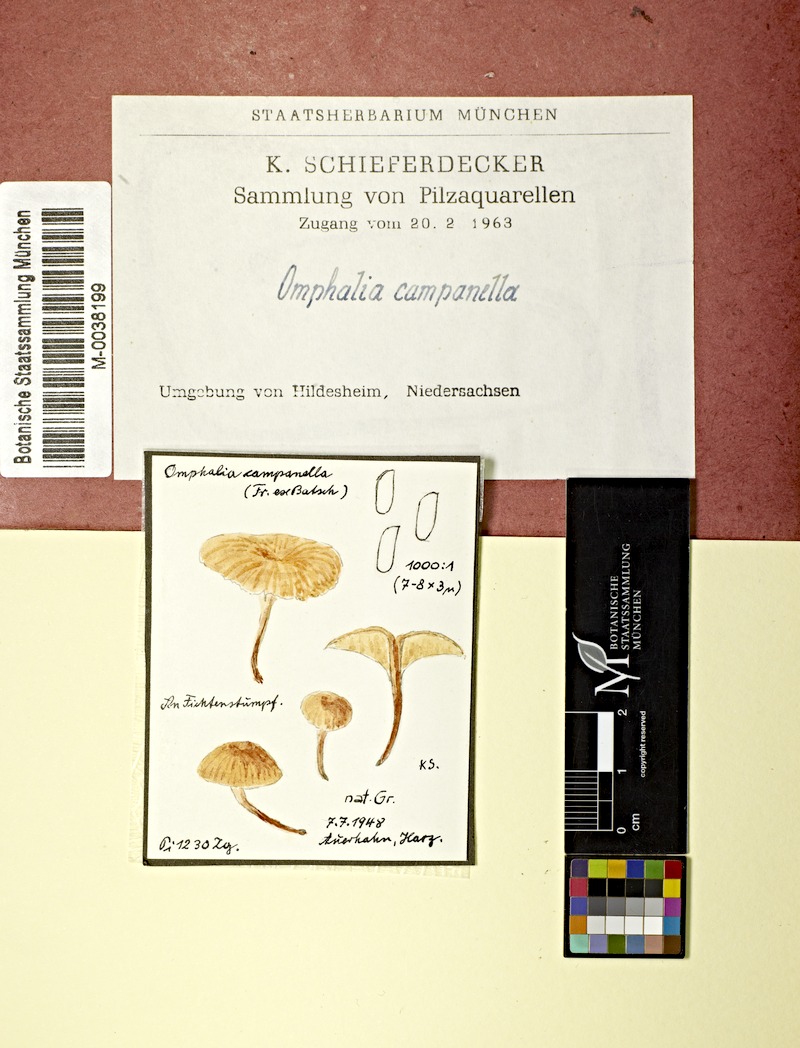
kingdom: Plantae
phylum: Tracheophyta
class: Pinopsida
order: Pinales
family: Pinaceae
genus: Picea
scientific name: Picea
